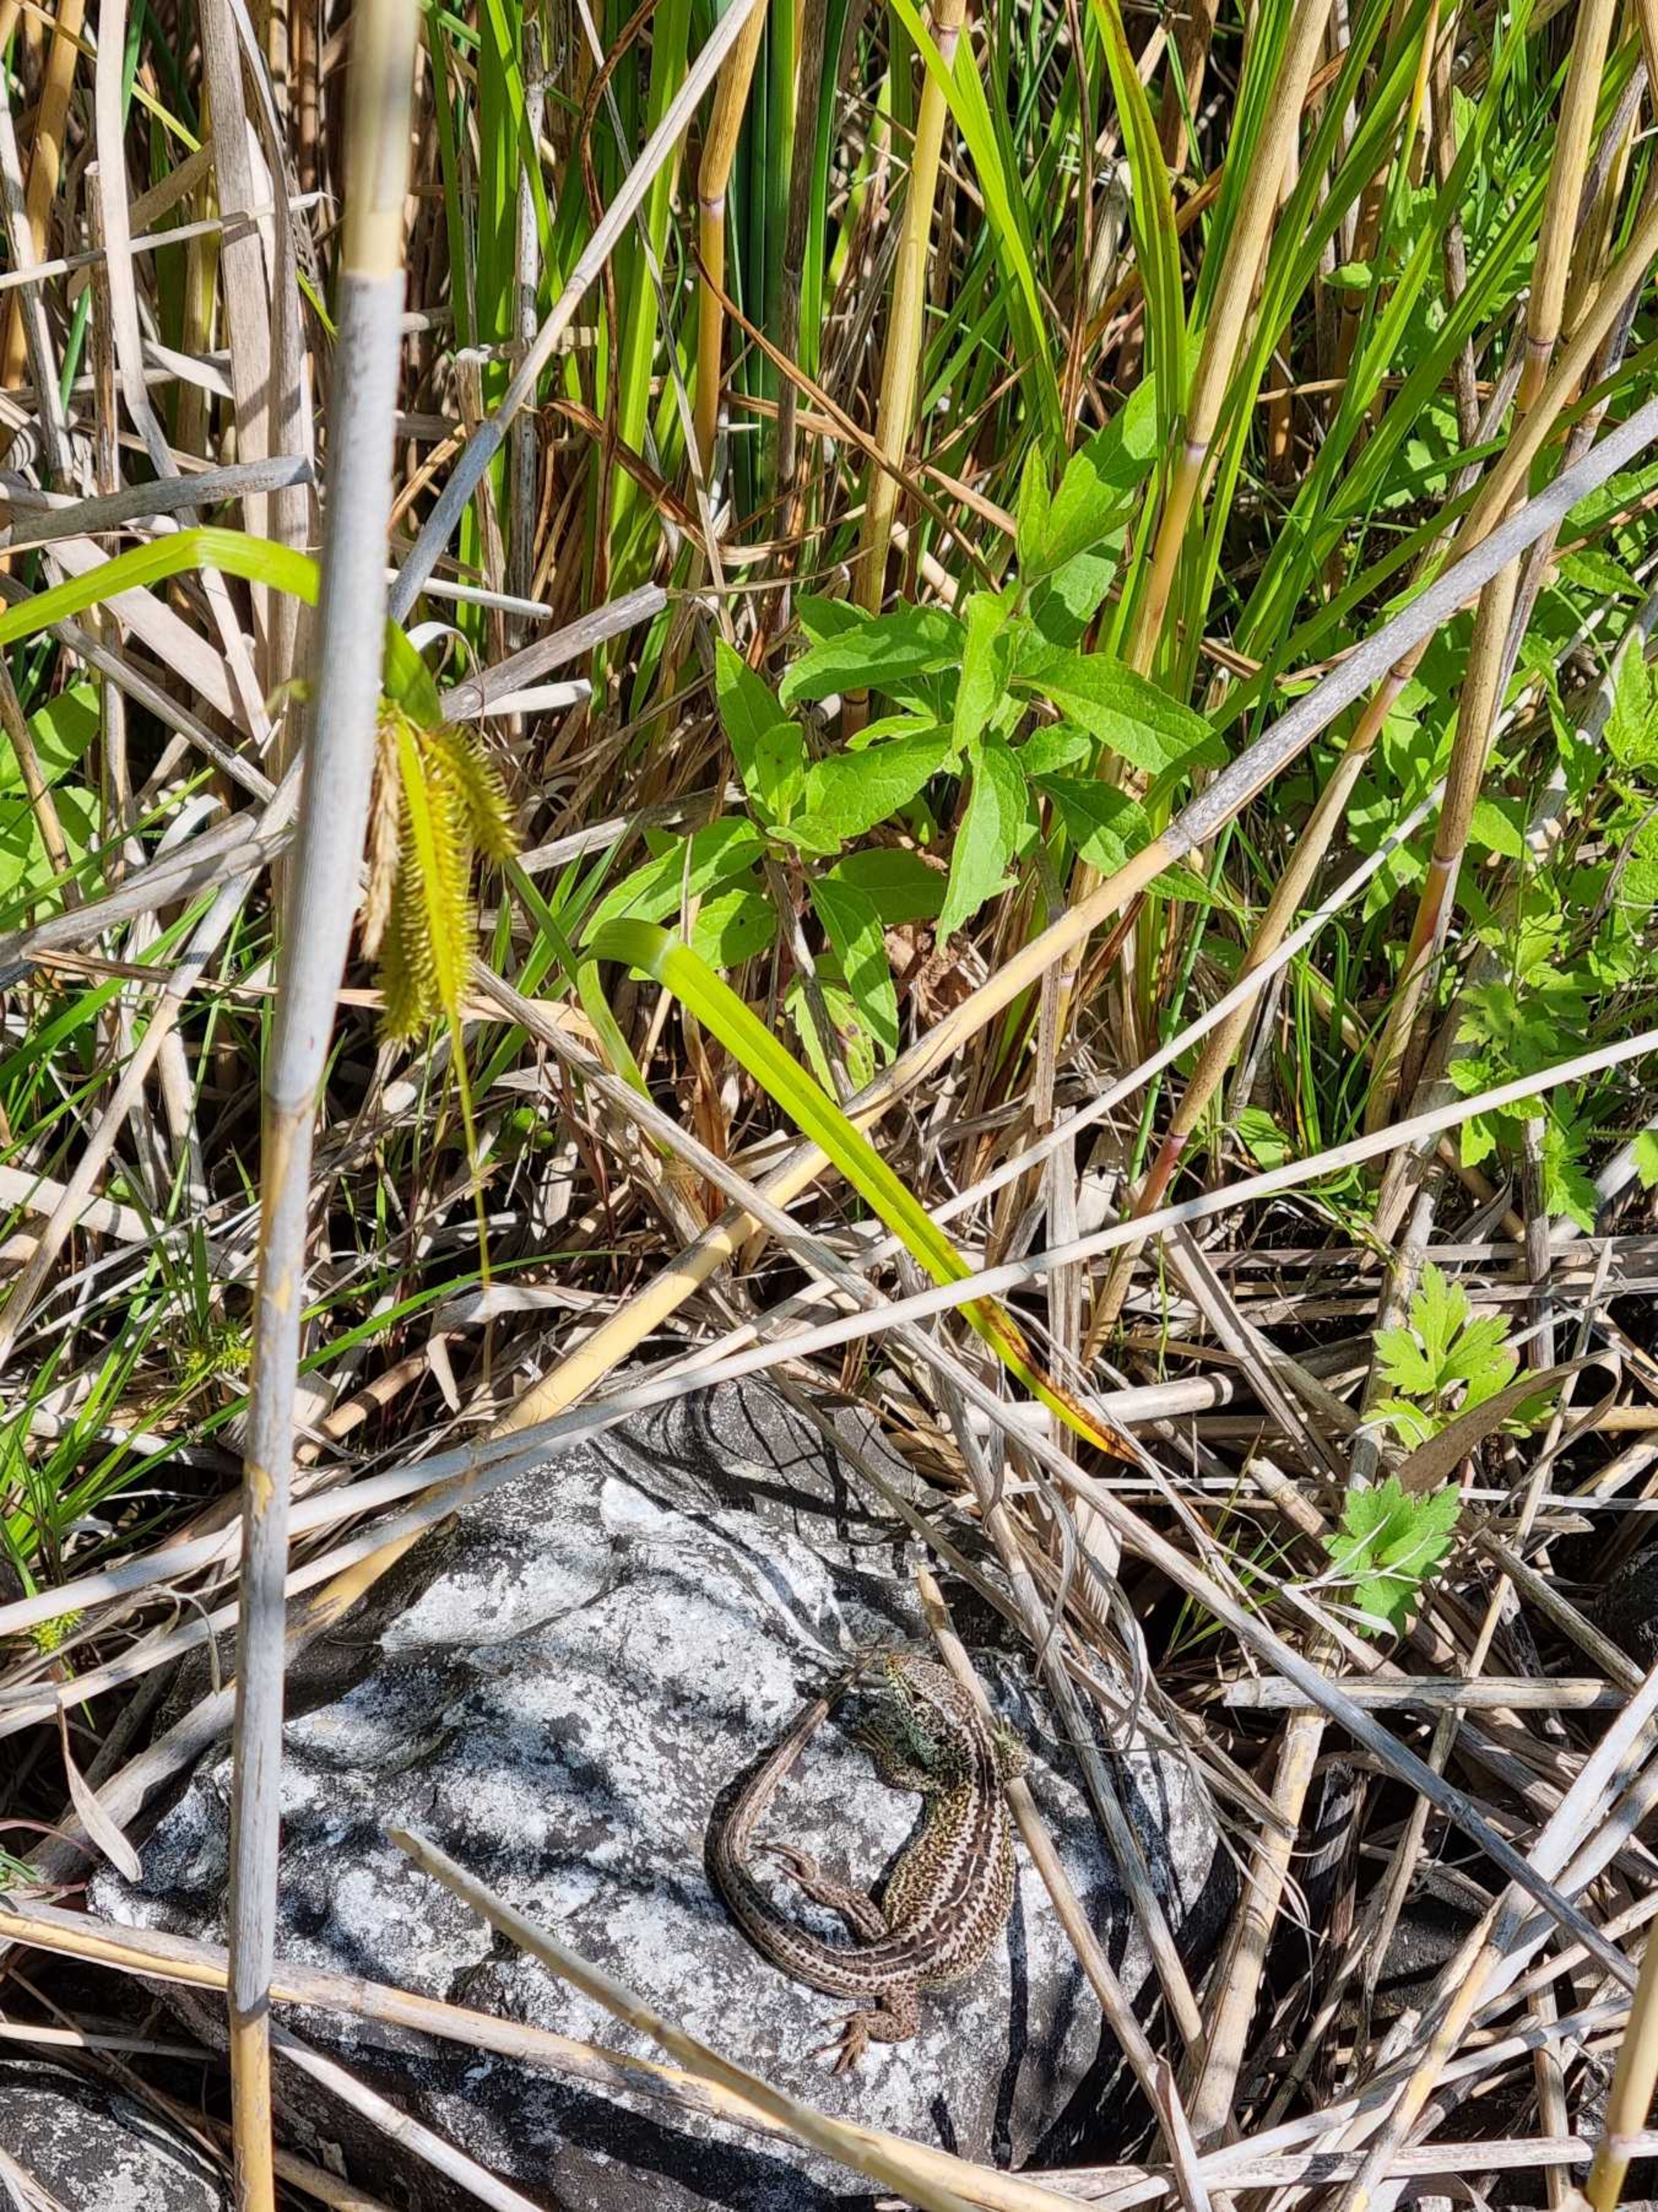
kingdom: Animalia
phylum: Chordata
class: Squamata
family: Lacertidae
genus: Lacerta
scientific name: Lacerta agilis
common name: Markfirben
